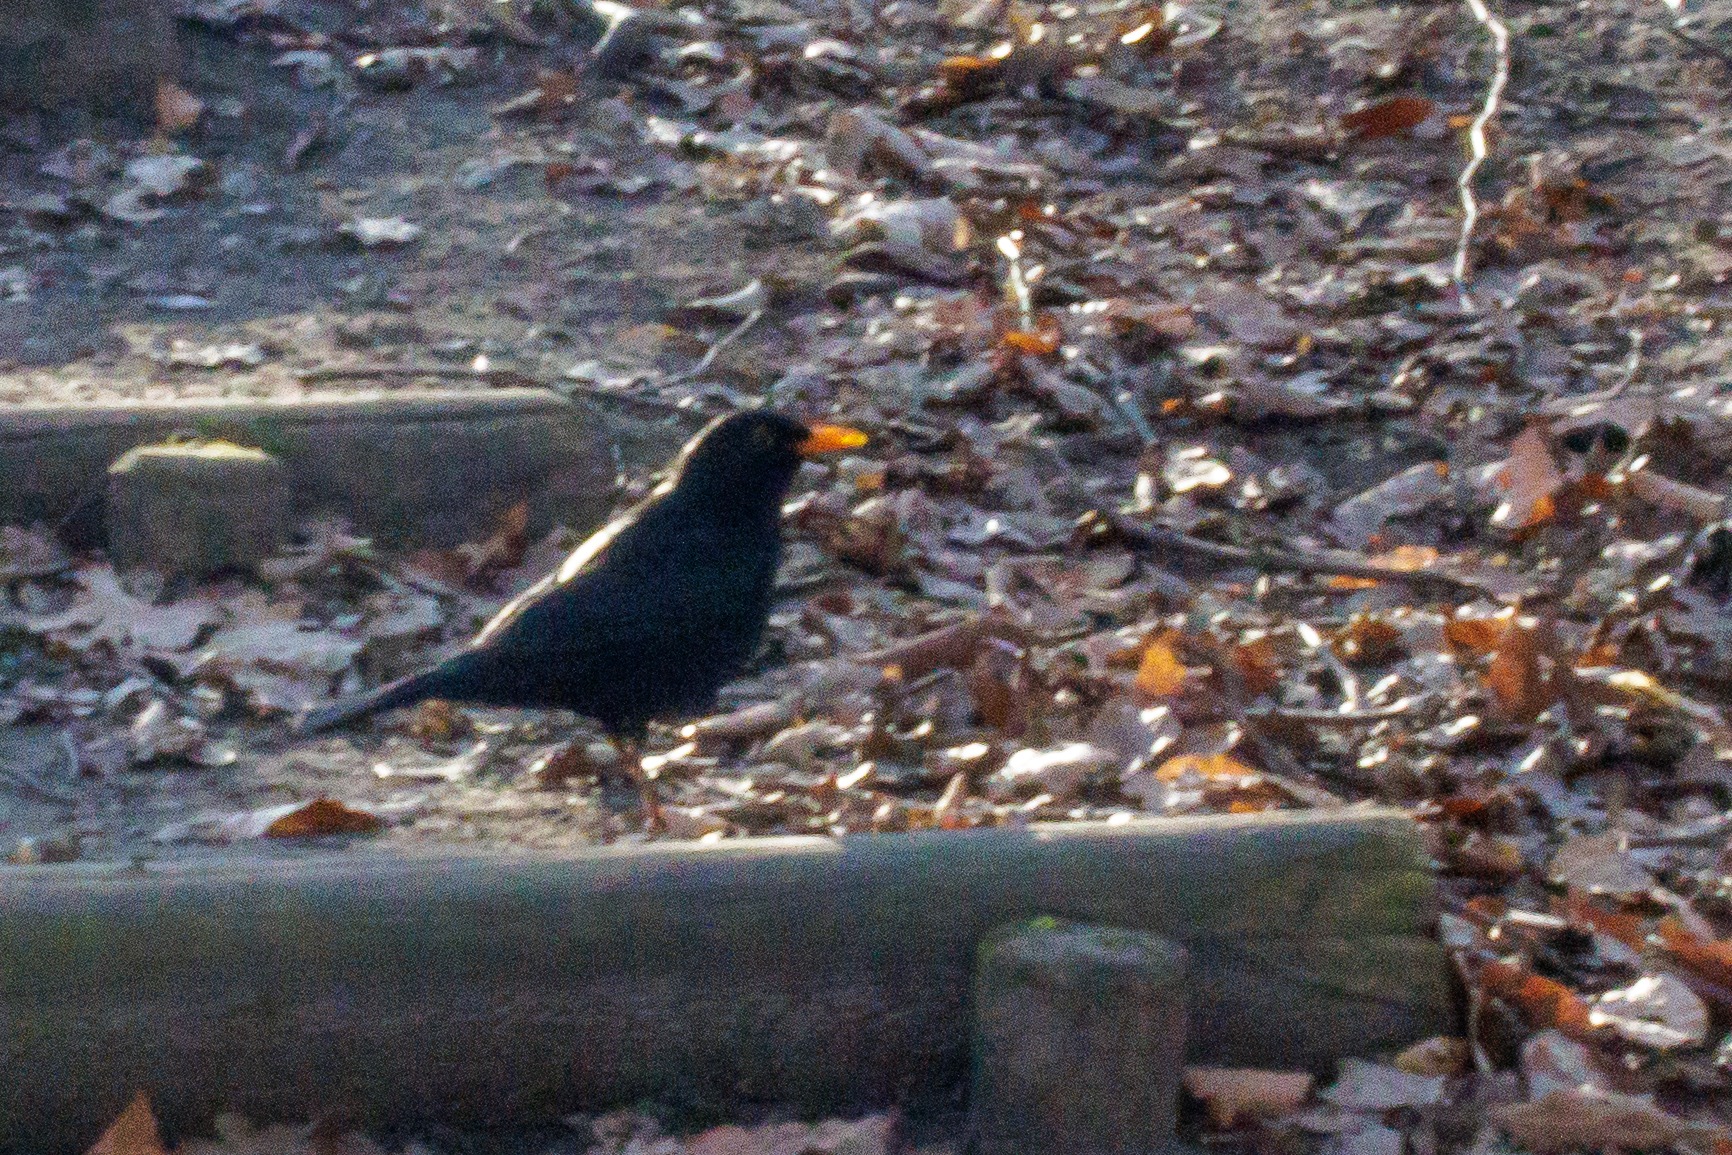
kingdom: Animalia
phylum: Chordata
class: Aves
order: Passeriformes
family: Turdidae
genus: Turdus
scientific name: Turdus merula
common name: Solsort
